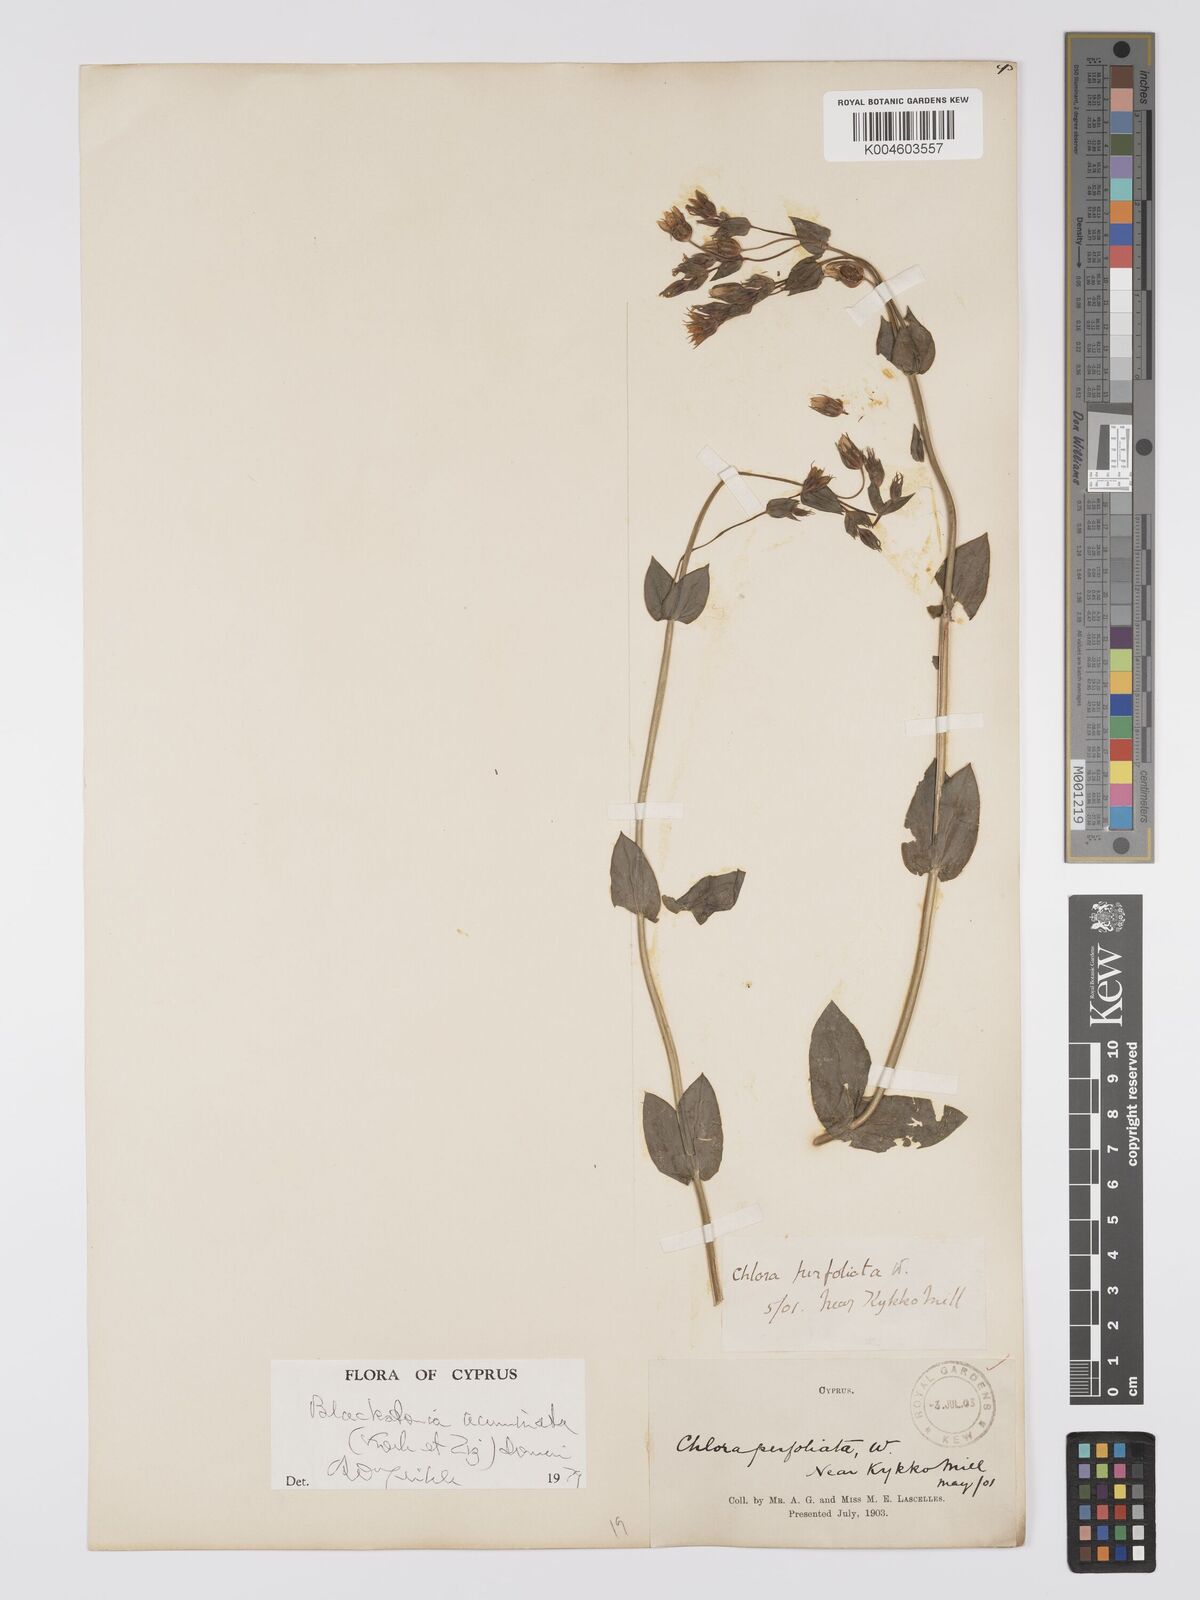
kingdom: Plantae
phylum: Tracheophyta
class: Magnoliopsida
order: Gentianales
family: Gentianaceae
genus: Blackstonia
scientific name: Blackstonia acuminata
